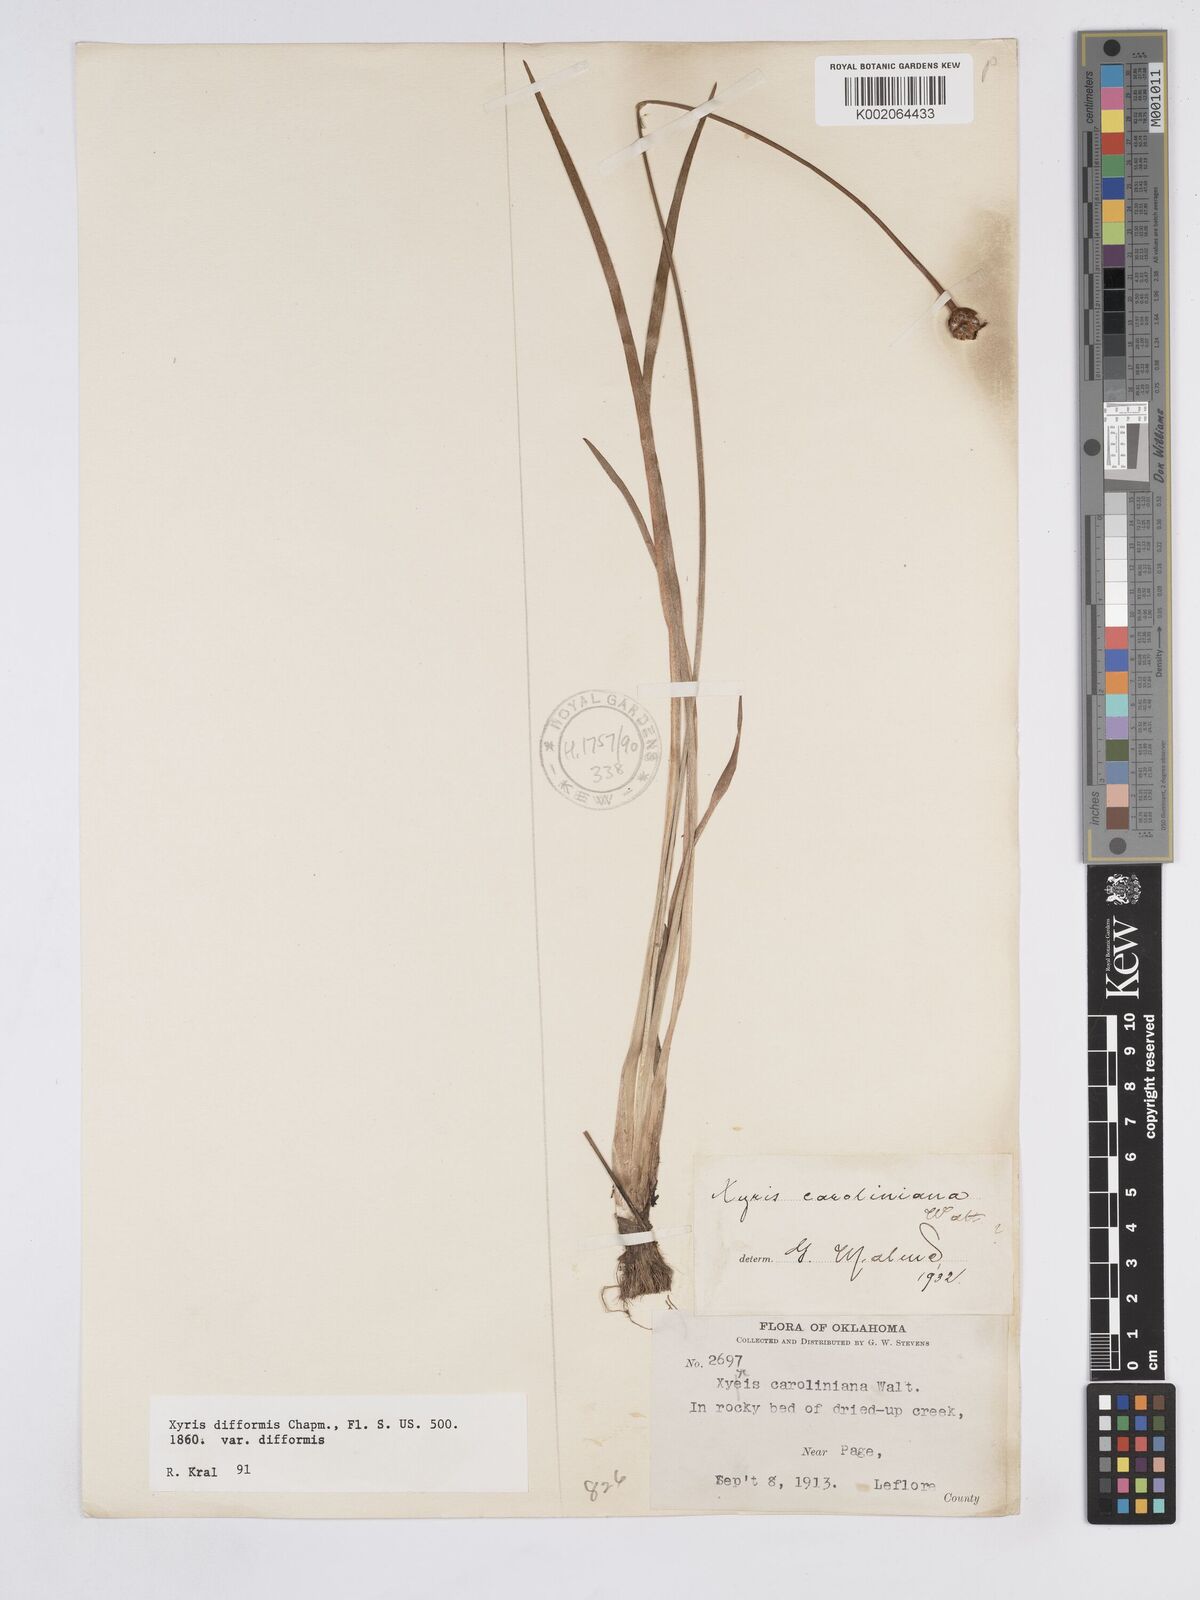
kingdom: Plantae
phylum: Tracheophyta
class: Liliopsida
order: Poales
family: Xyridaceae
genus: Xyris
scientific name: Xyris difformis
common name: Bog yellow-eyed-grass
